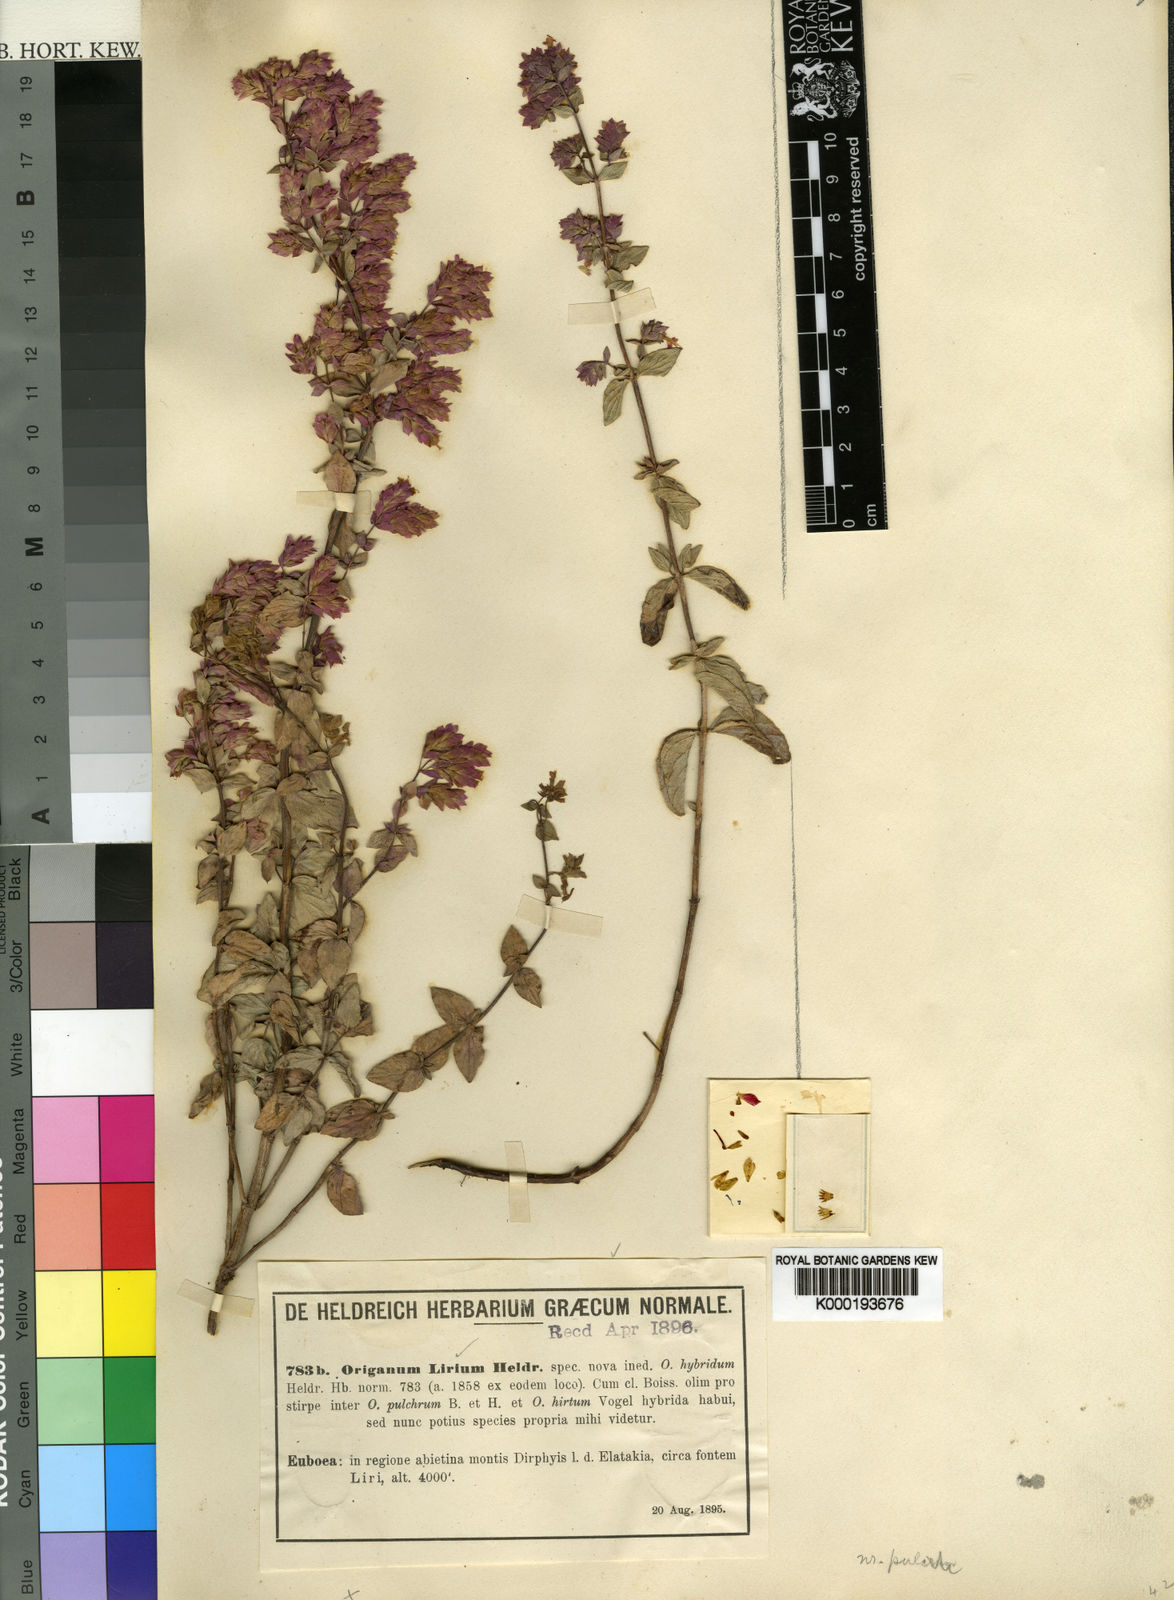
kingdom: Plantae
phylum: Tracheophyta
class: Magnoliopsida
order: Lamiales
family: Lamiaceae
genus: Origanum
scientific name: Origanum
